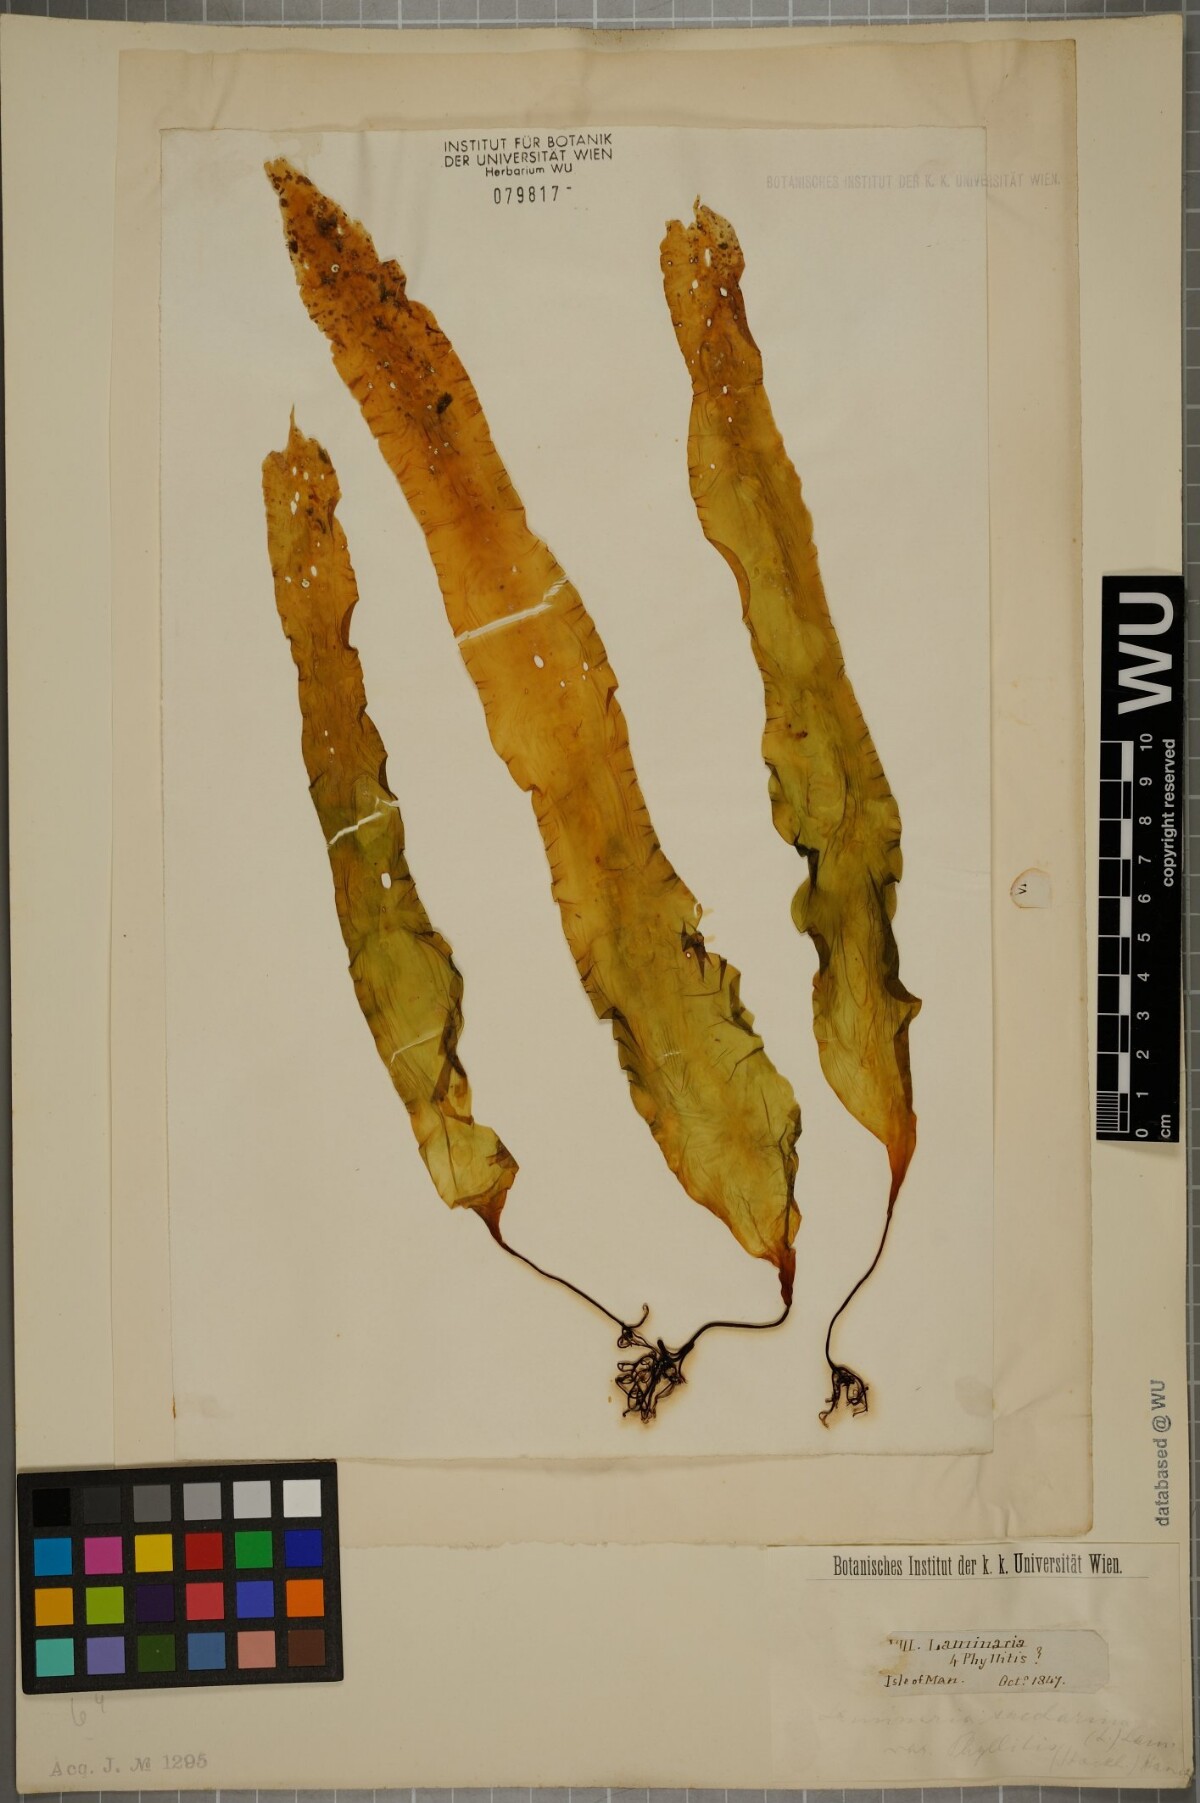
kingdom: Chromista
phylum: Ochrophyta
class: Phaeophyceae
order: Laminariales
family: Laminariaceae
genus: Saccharina
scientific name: Saccharina latissima
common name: Poor man's weather glass
